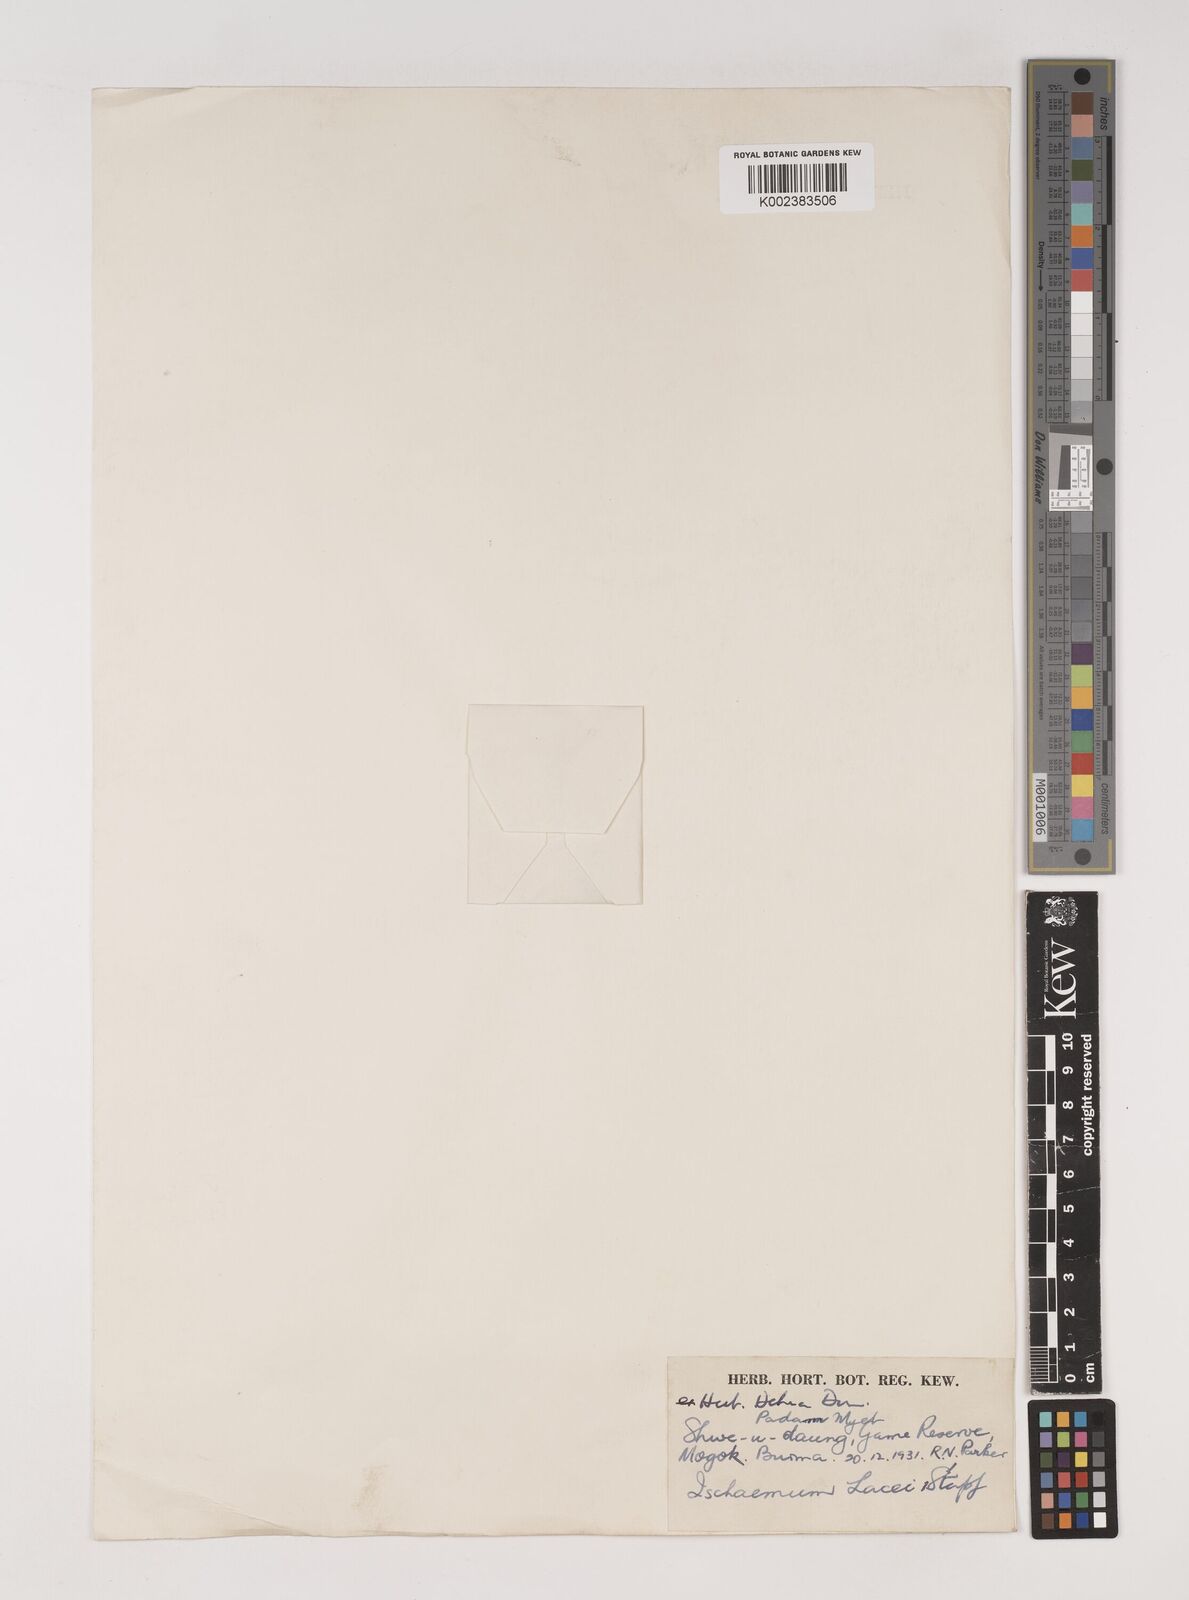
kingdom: Plantae
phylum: Tracheophyta
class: Liliopsida
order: Poales
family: Poaceae
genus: Ischaemum
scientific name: Ischaemum
